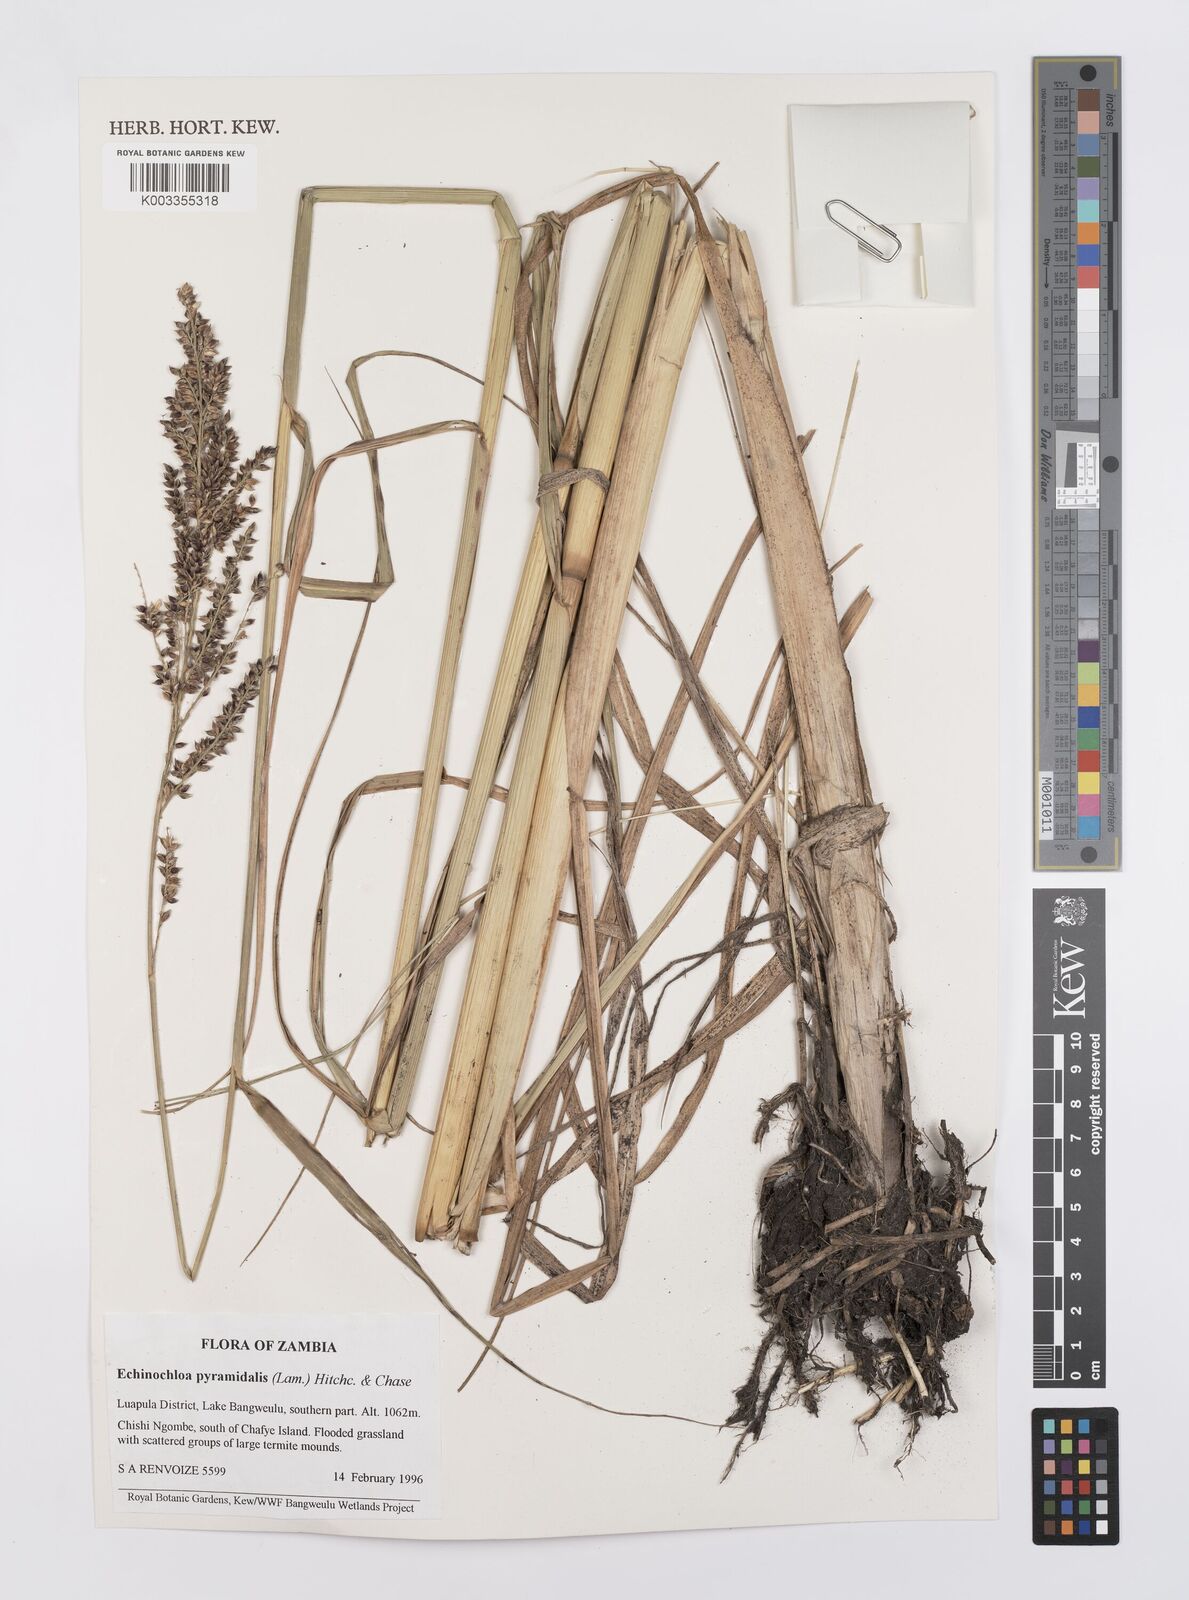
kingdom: Plantae
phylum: Tracheophyta
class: Liliopsida
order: Poales
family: Poaceae
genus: Echinochloa
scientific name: Echinochloa pyramidalis
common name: Antelope grass
